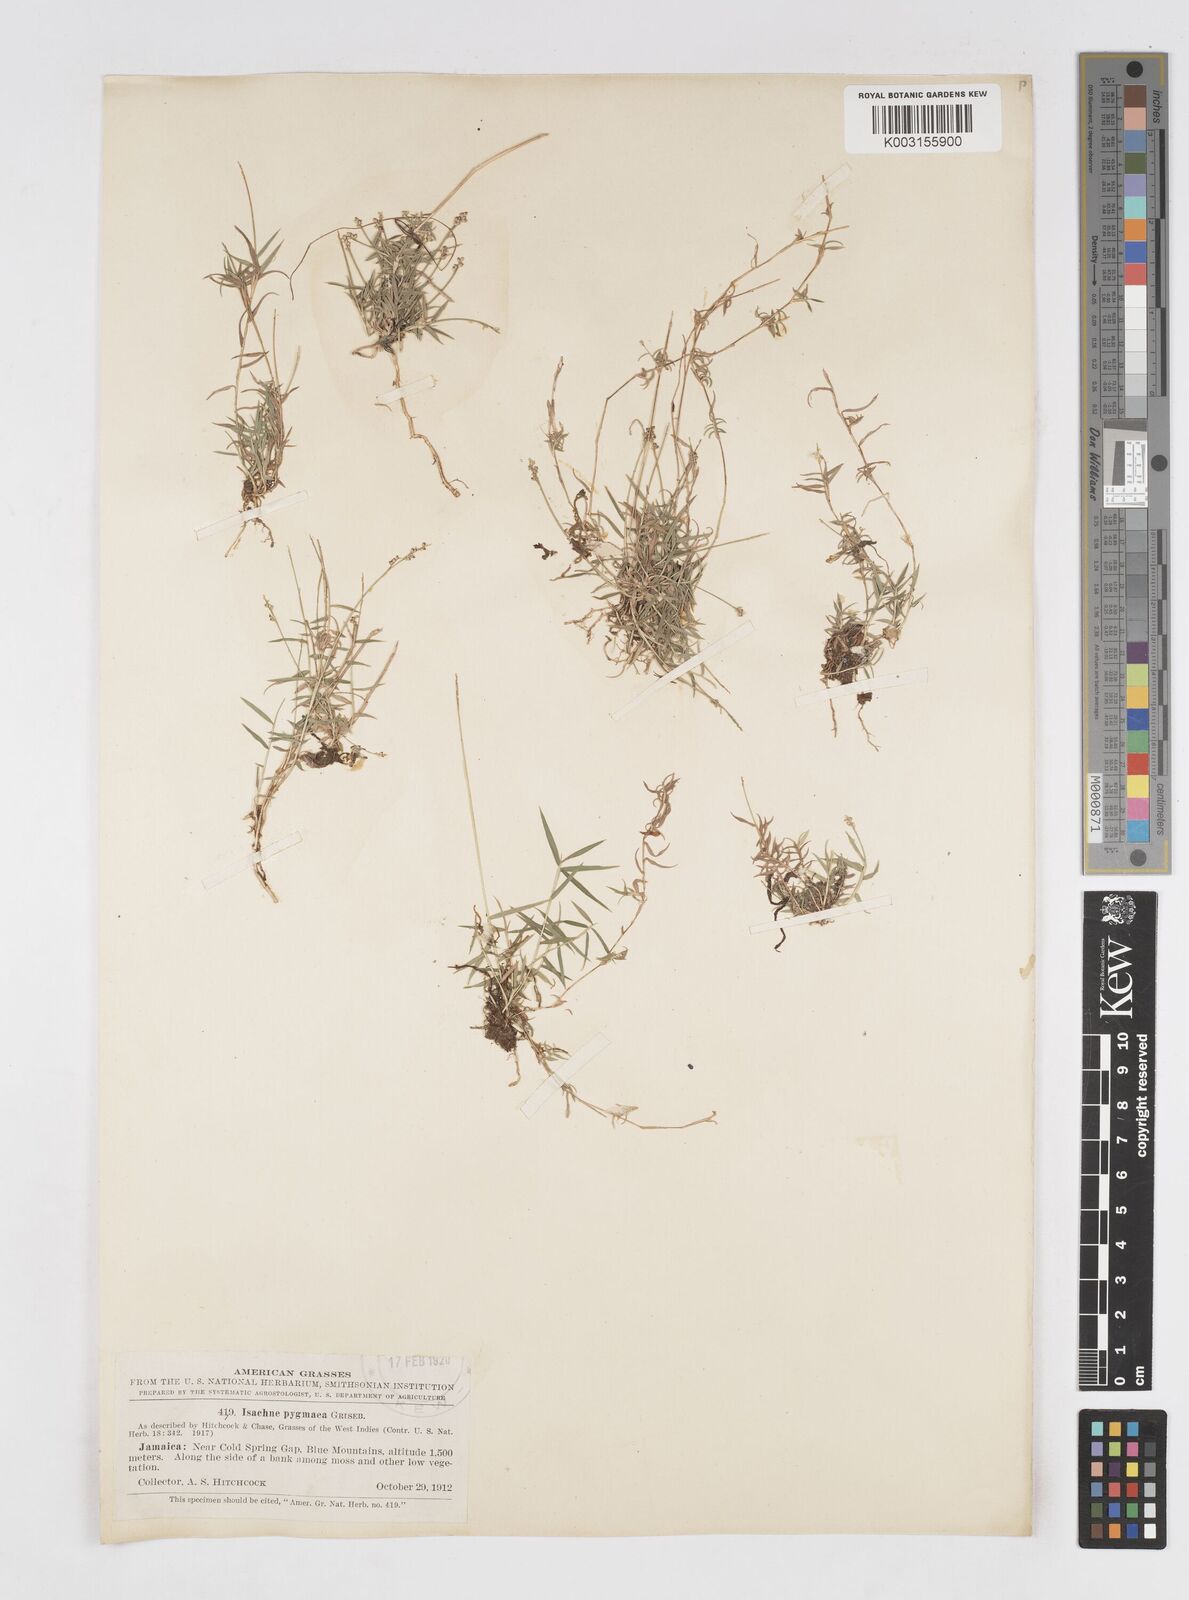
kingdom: Plantae
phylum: Tracheophyta
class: Liliopsida
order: Poales
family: Poaceae
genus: Isachne
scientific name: Isachne pygmaea
